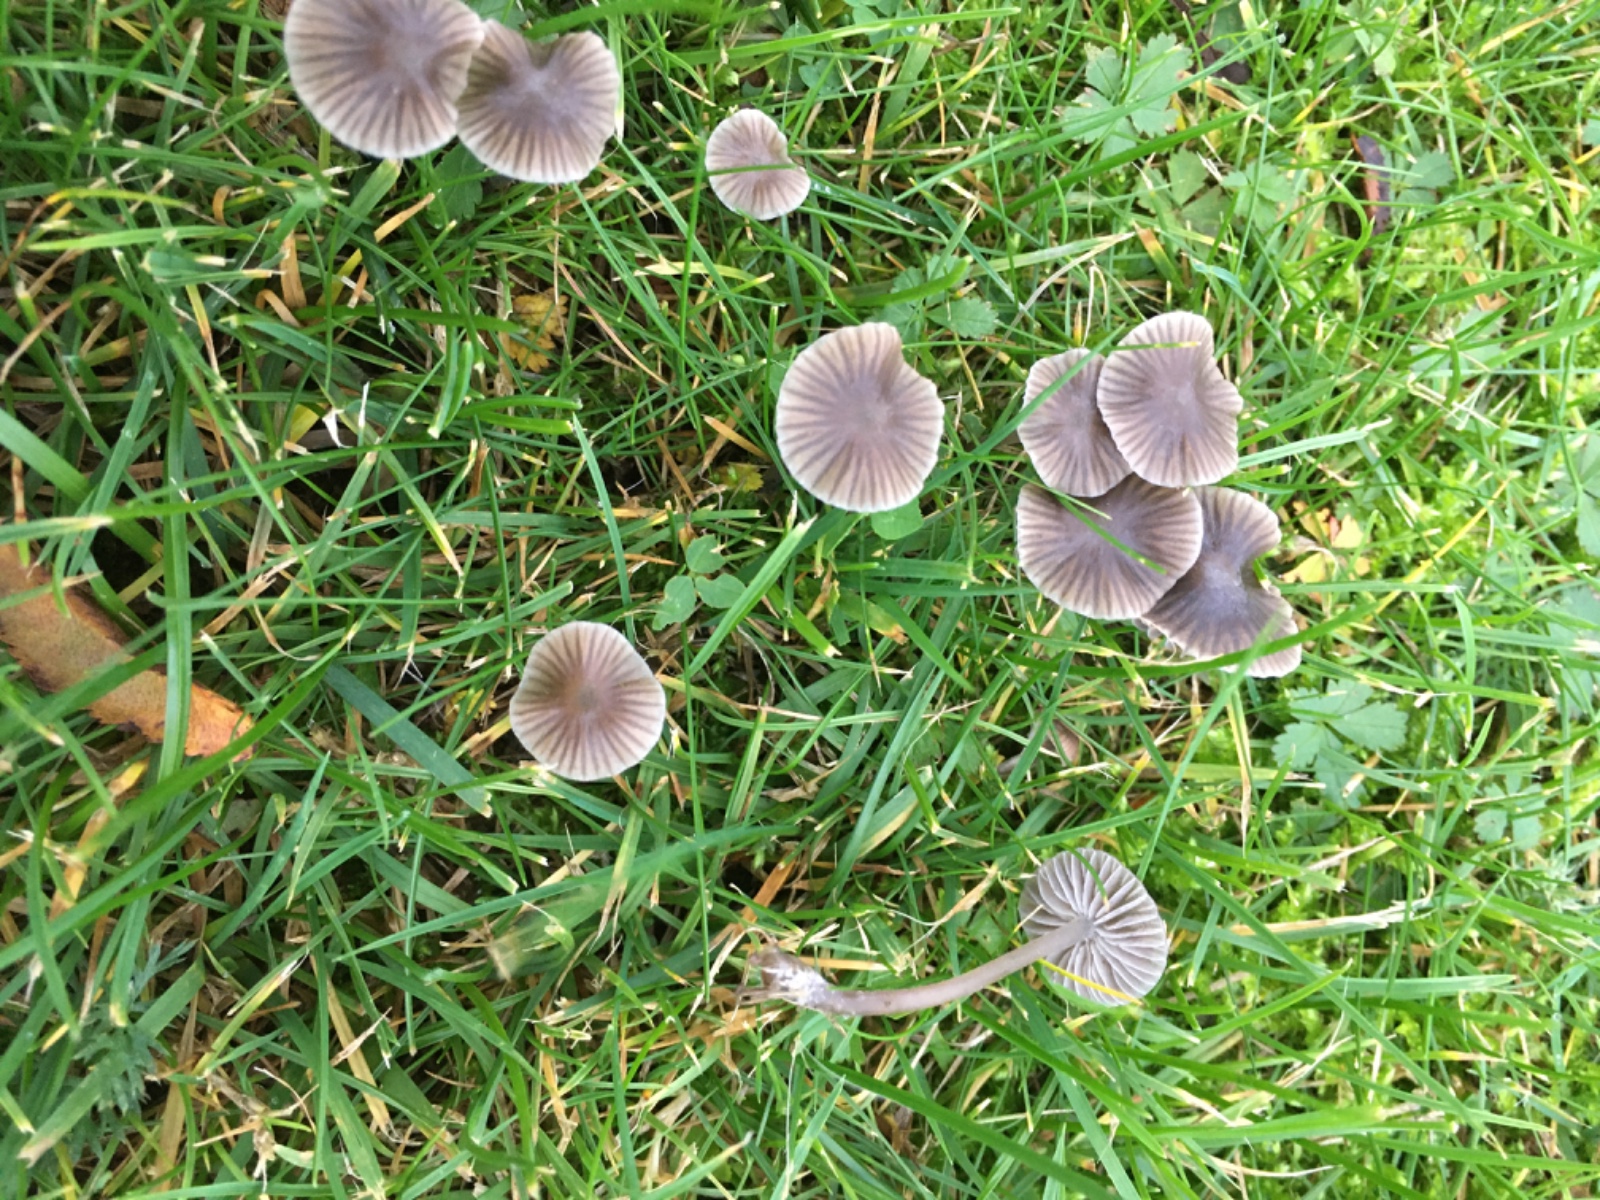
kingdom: Fungi
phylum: Basidiomycota
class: Agaricomycetes
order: Agaricales
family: Mycenaceae
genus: Mycena
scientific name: Mycena aetites
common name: plæne-huesvamp
